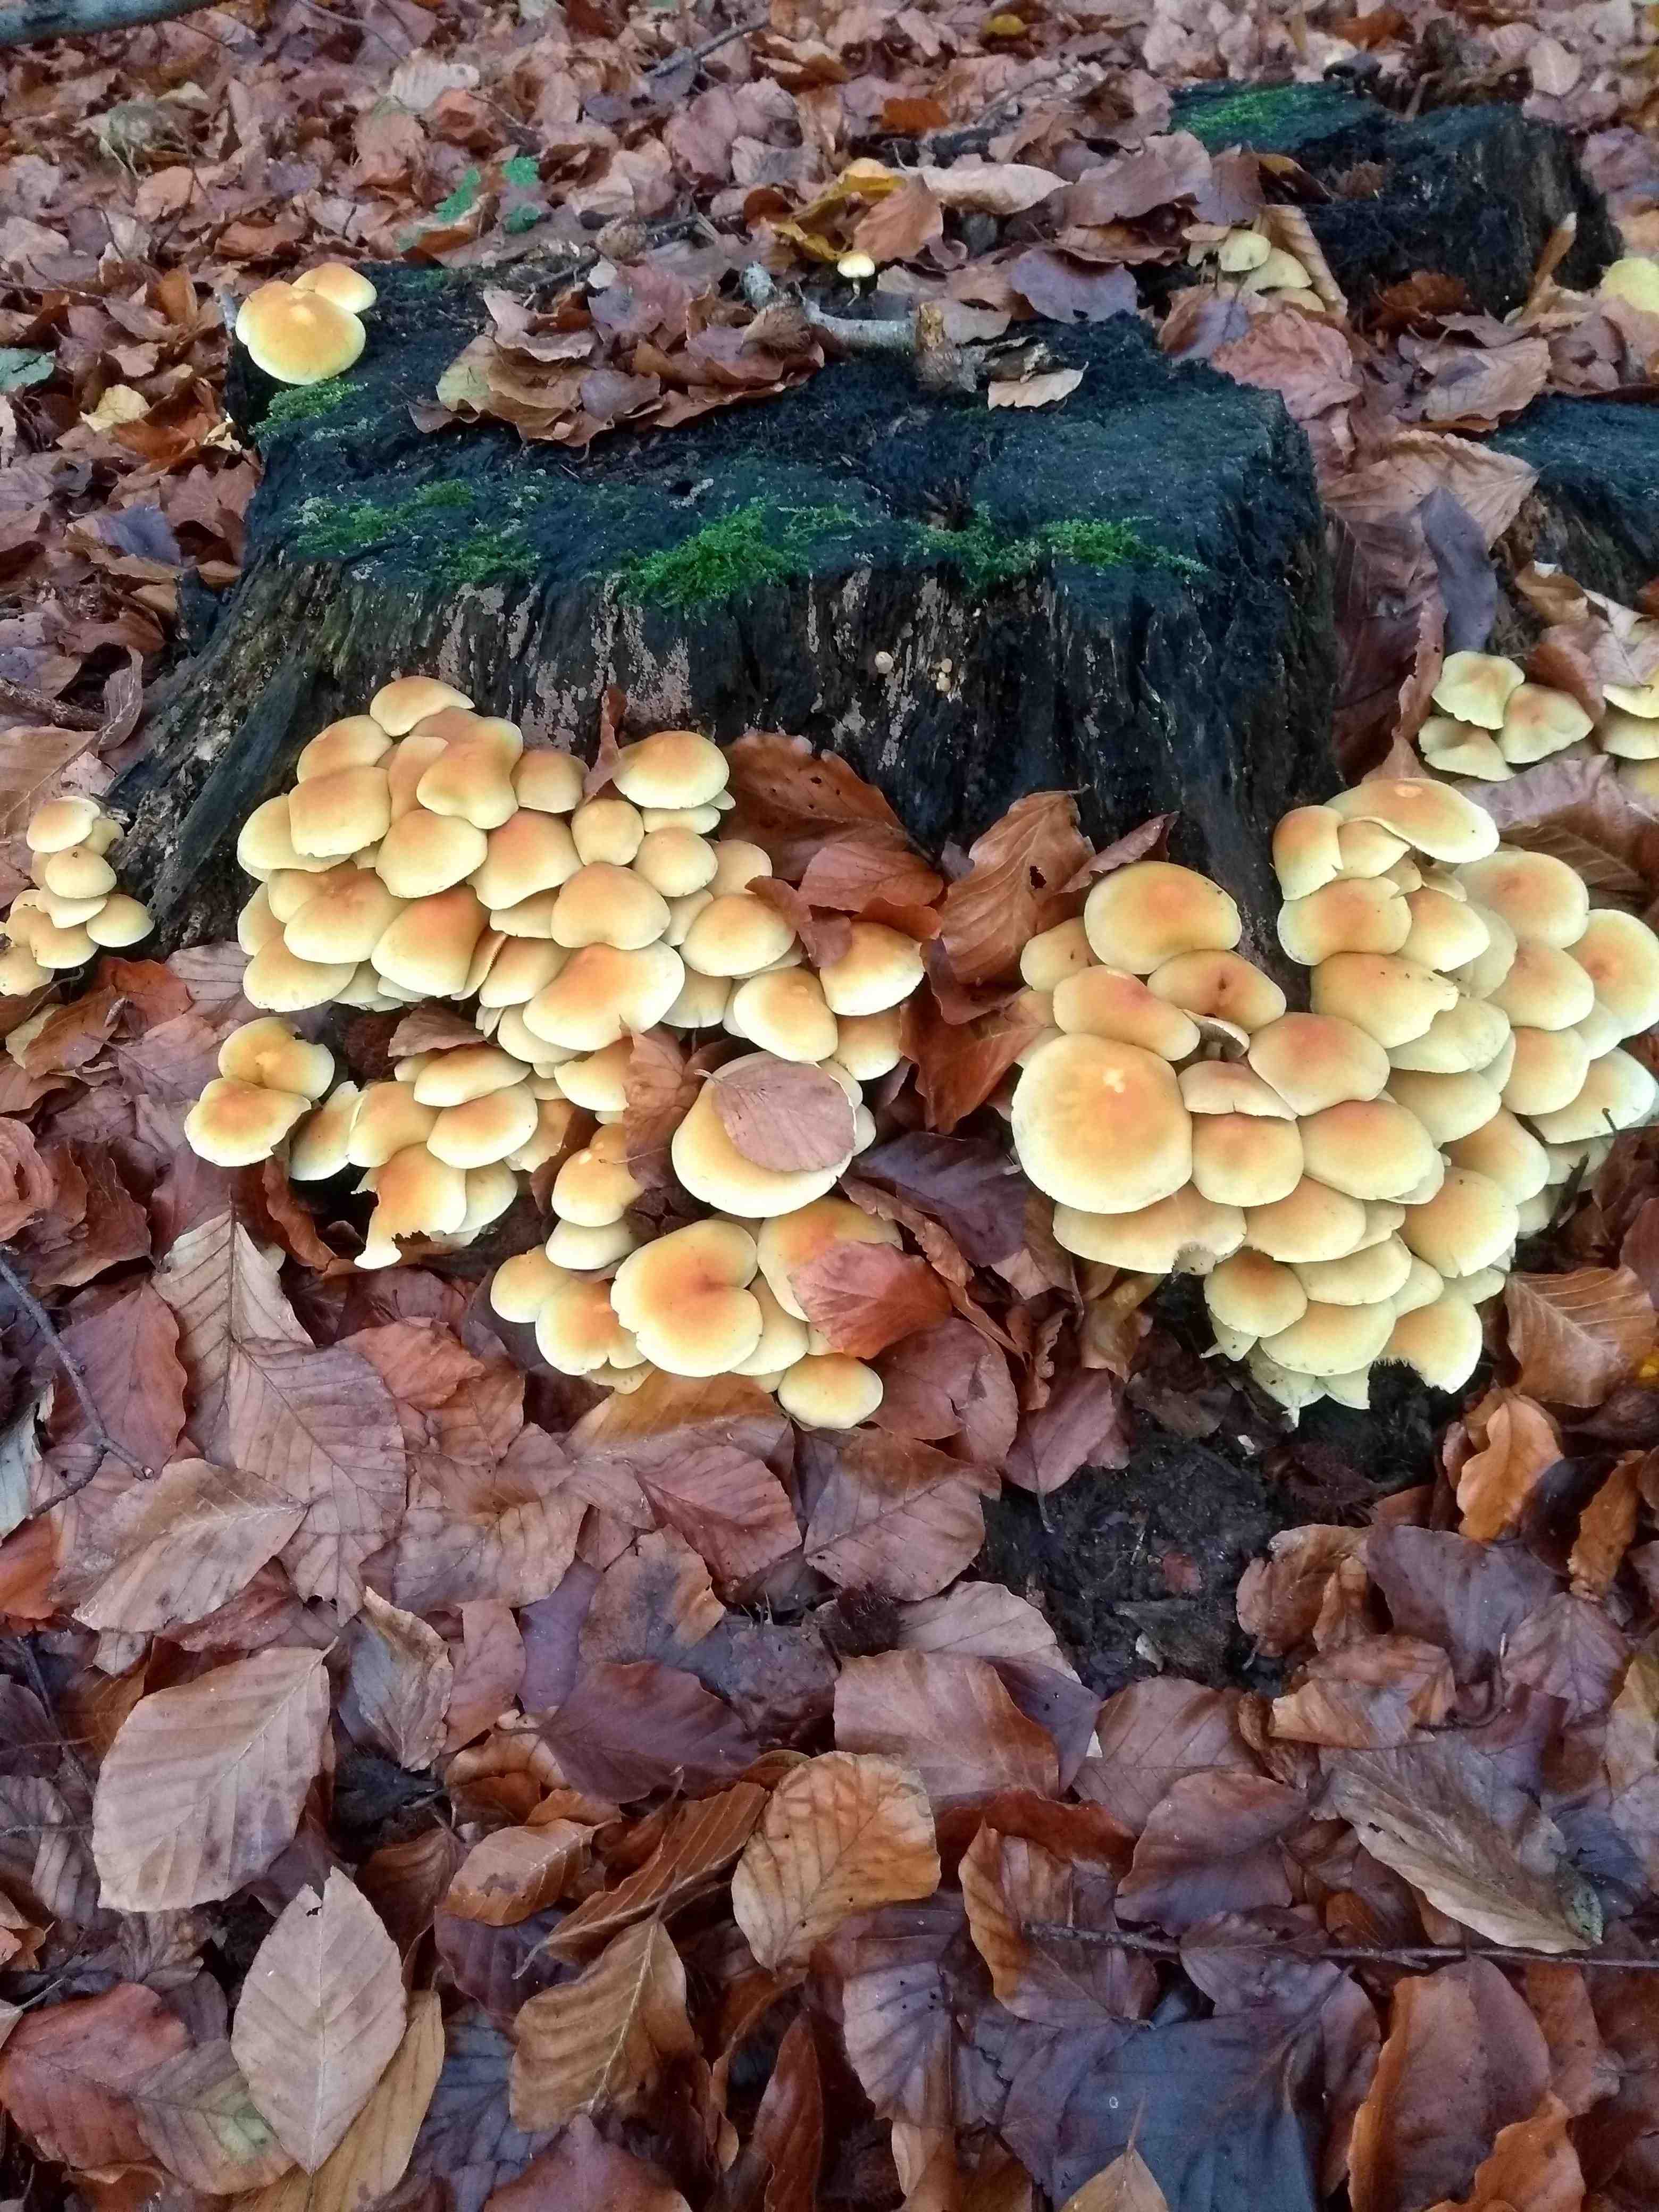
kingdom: Fungi
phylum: Basidiomycota
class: Agaricomycetes
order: Agaricales
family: Strophariaceae
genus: Hypholoma
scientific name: Hypholoma fasciculare
